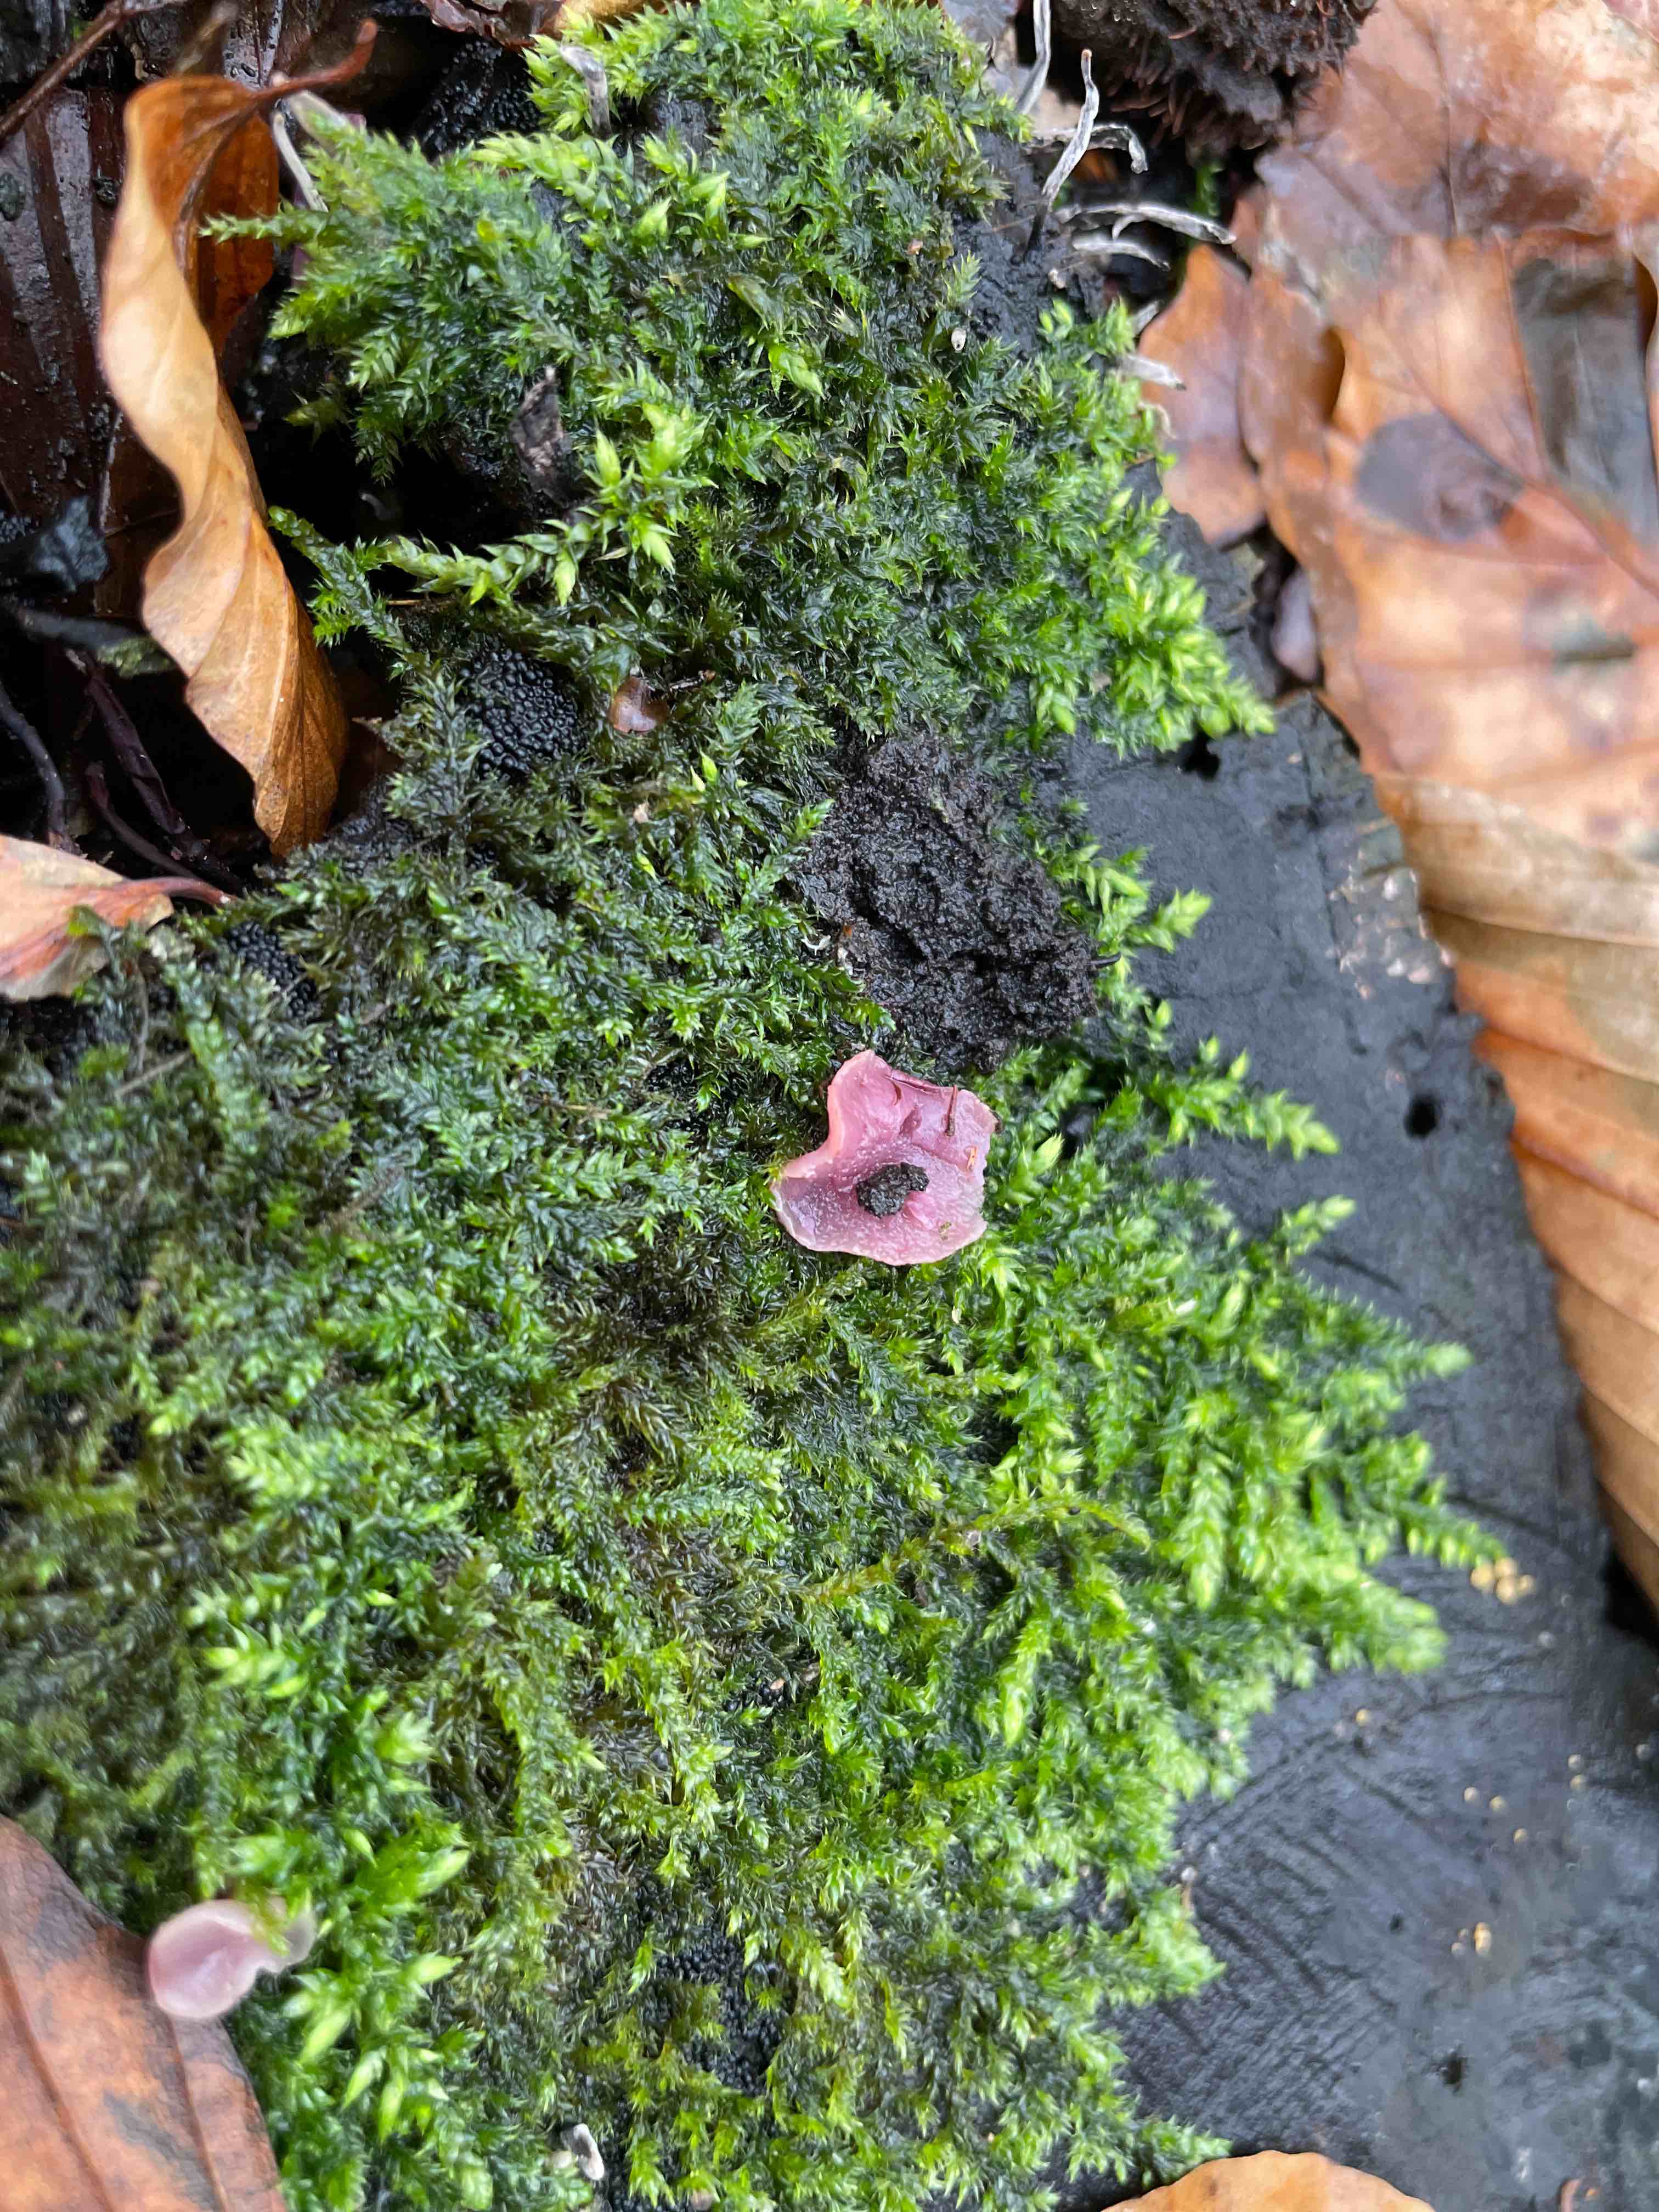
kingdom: Fungi
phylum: Ascomycota
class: Leotiomycetes
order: Helotiales
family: Gelatinodiscaceae
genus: Ascocoryne
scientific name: Ascocoryne cylichnium
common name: stor sejskive
